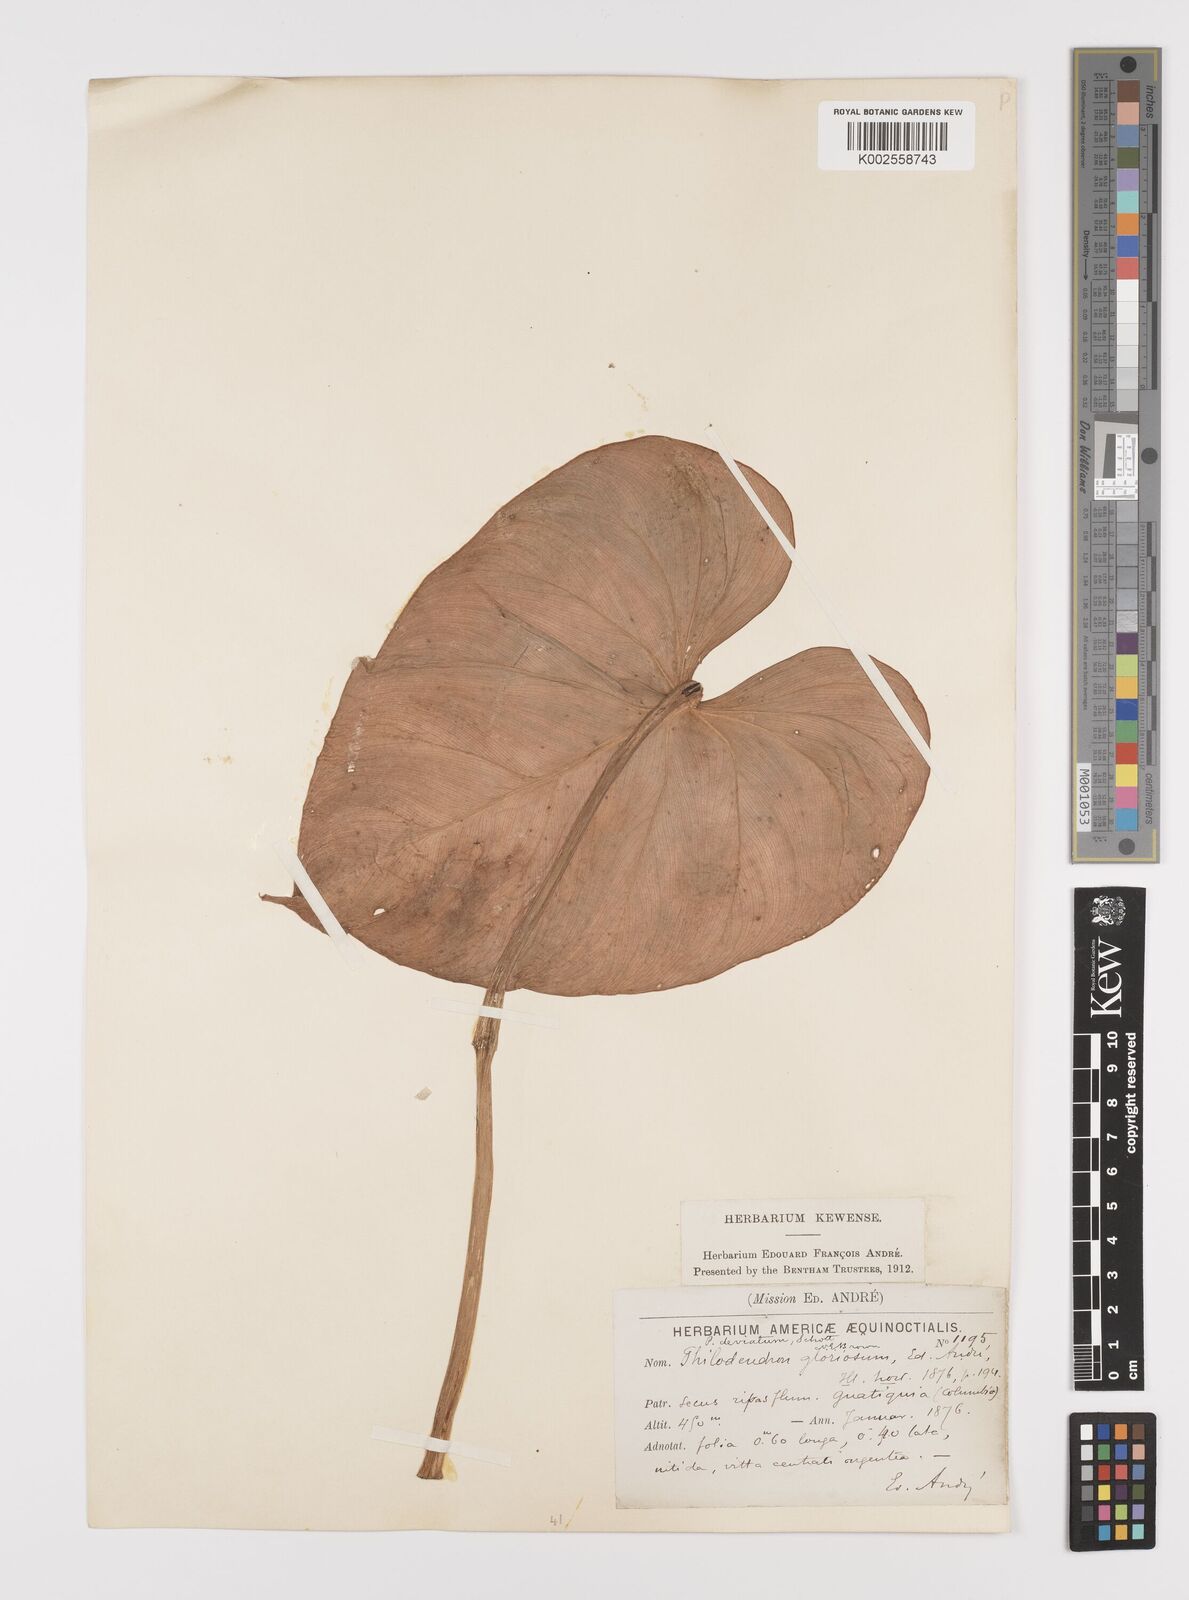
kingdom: Plantae
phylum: Tracheophyta
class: Liliopsida
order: Alismatales
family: Araceae
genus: Philodendron
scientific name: Philodendron jacquinii
